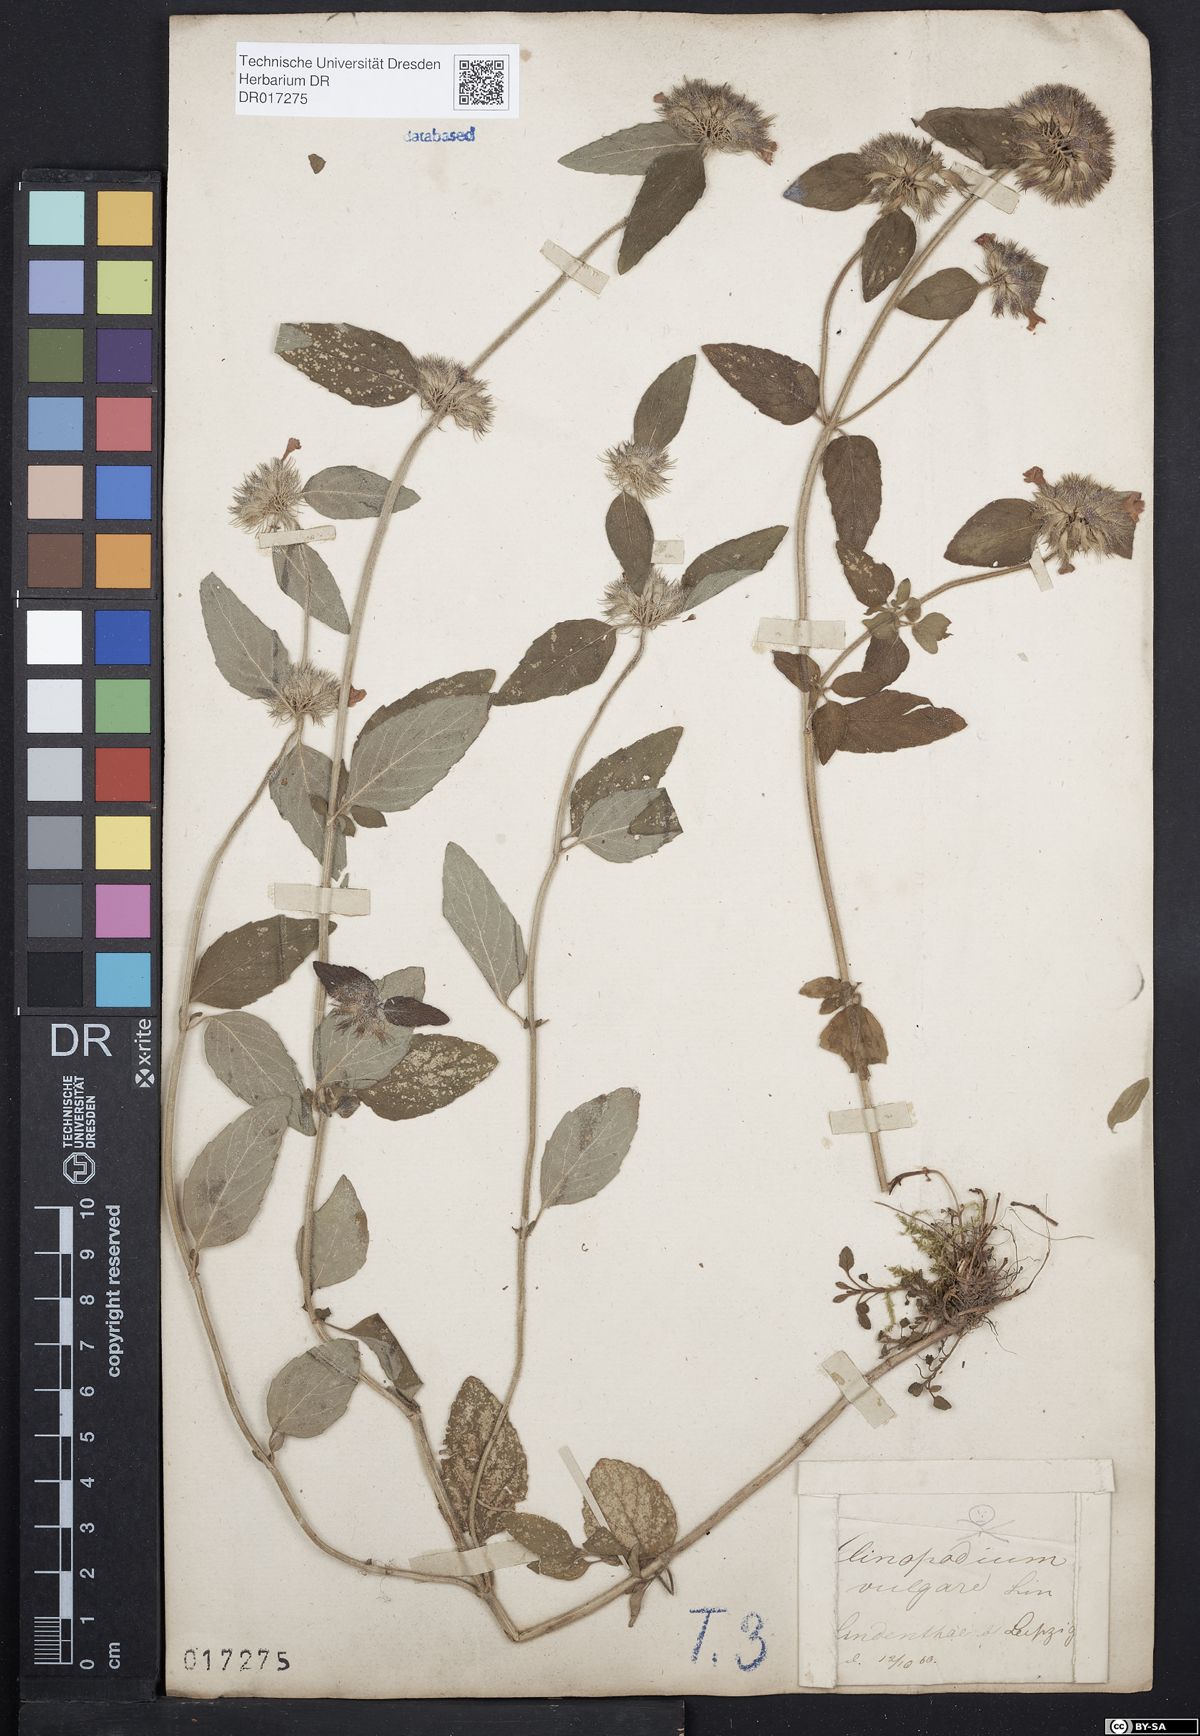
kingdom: Plantae
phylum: Tracheophyta
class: Magnoliopsida
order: Lamiales
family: Lamiaceae
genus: Clinopodium
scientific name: Clinopodium vulgare
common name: Wild basil
